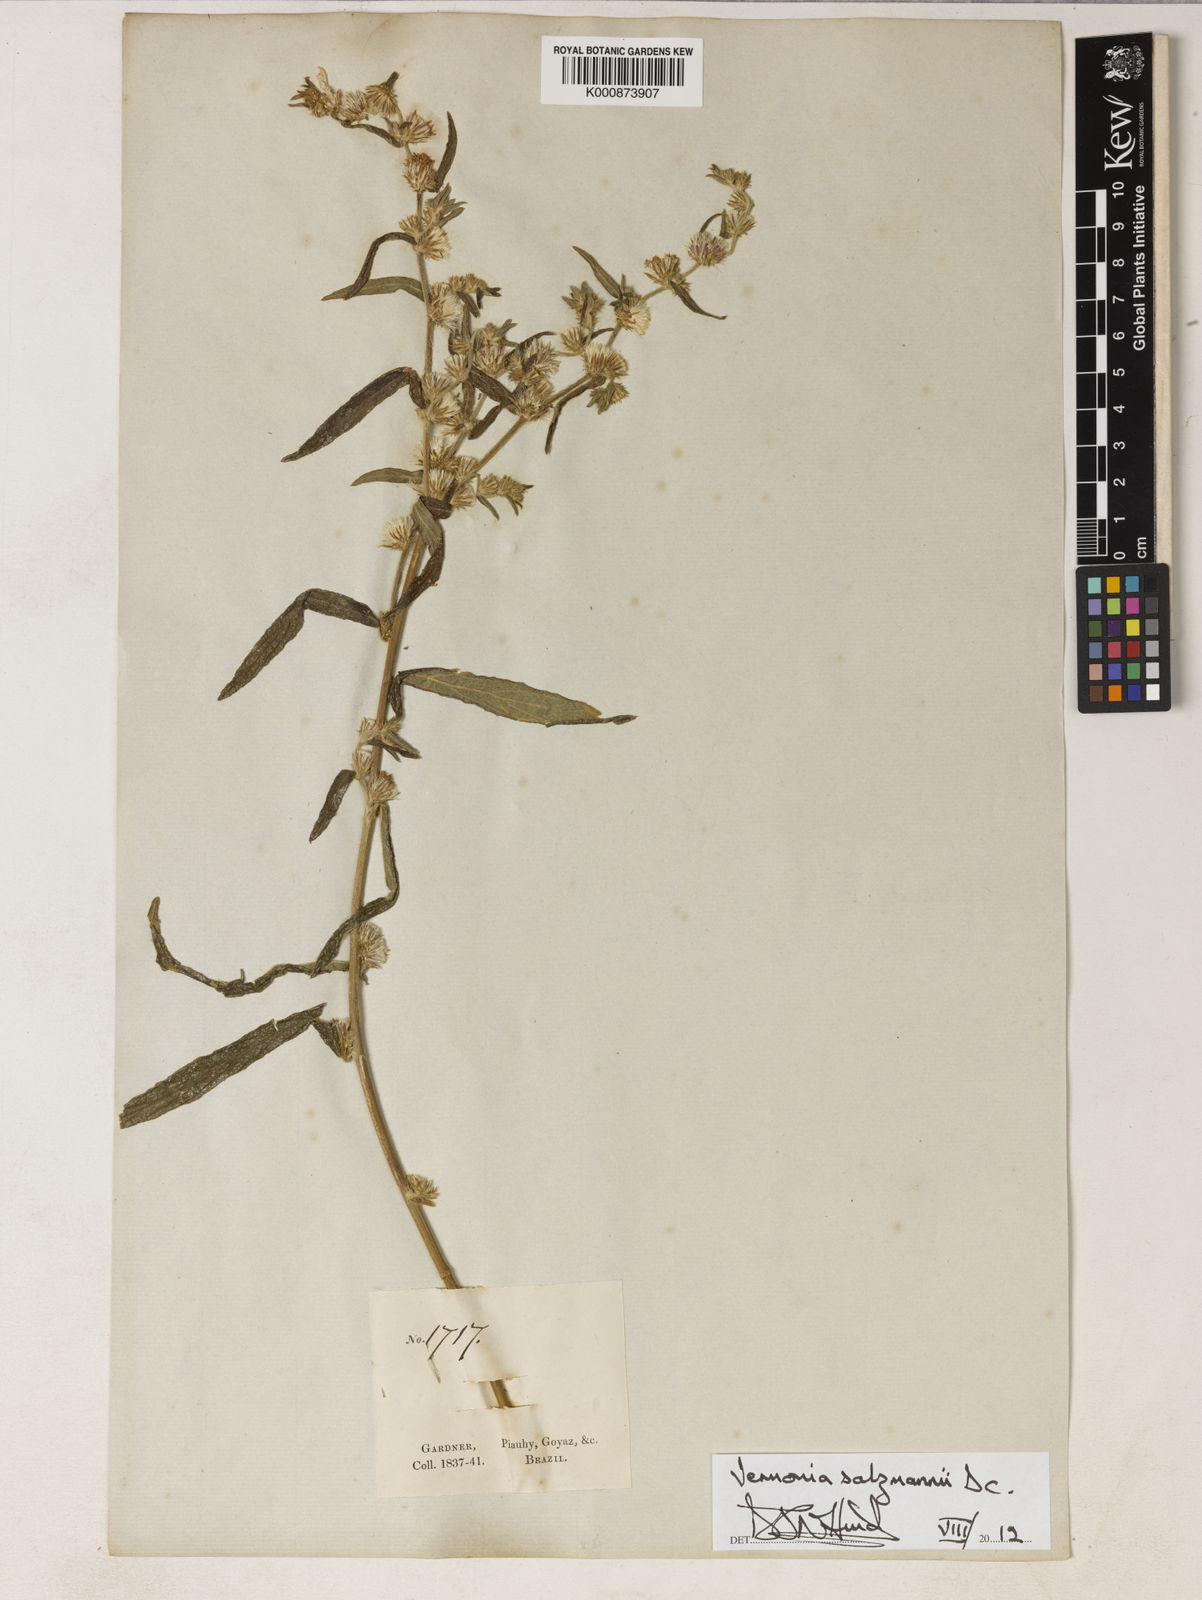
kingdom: Plantae
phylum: Tracheophyta
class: Magnoliopsida
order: Asterales
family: Asteraceae
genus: Lepidaploa
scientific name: Lepidaploa salzmannii
